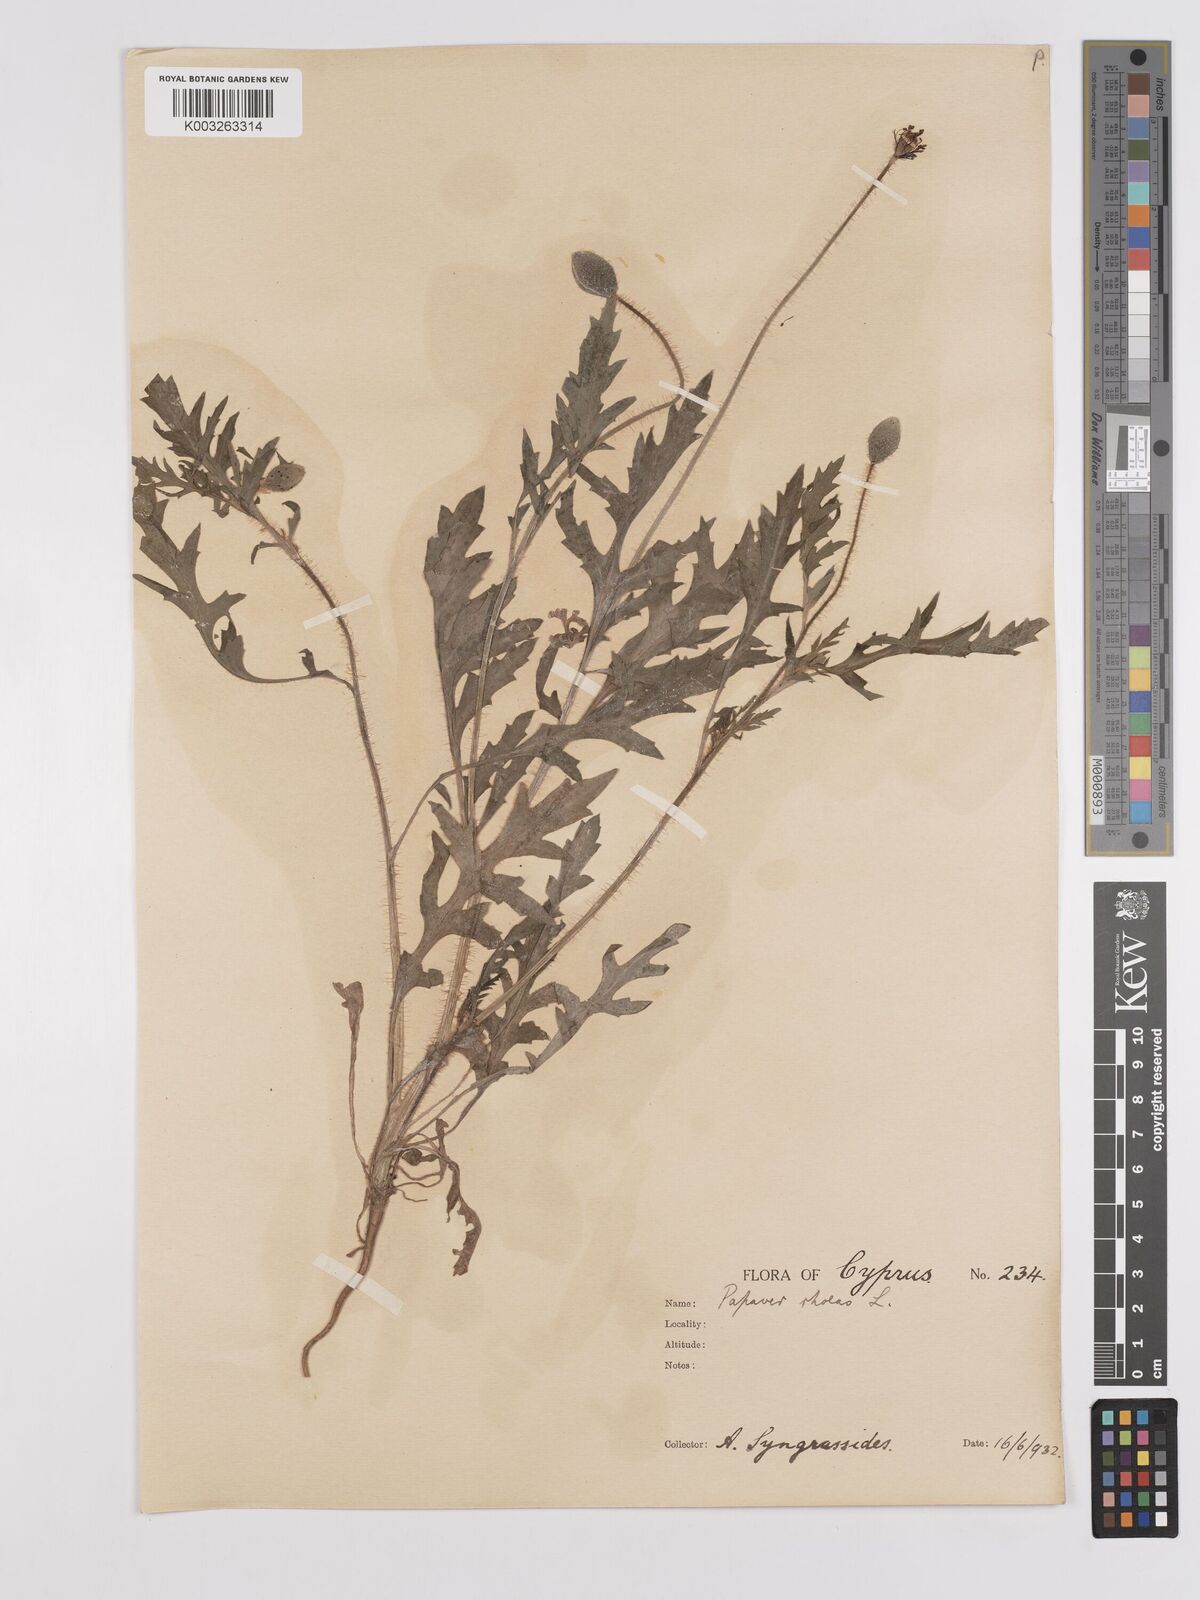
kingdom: Plantae
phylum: Tracheophyta
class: Magnoliopsida
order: Ranunculales
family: Papaveraceae
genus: Papaver
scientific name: Papaver rhoeas
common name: Corn poppy
